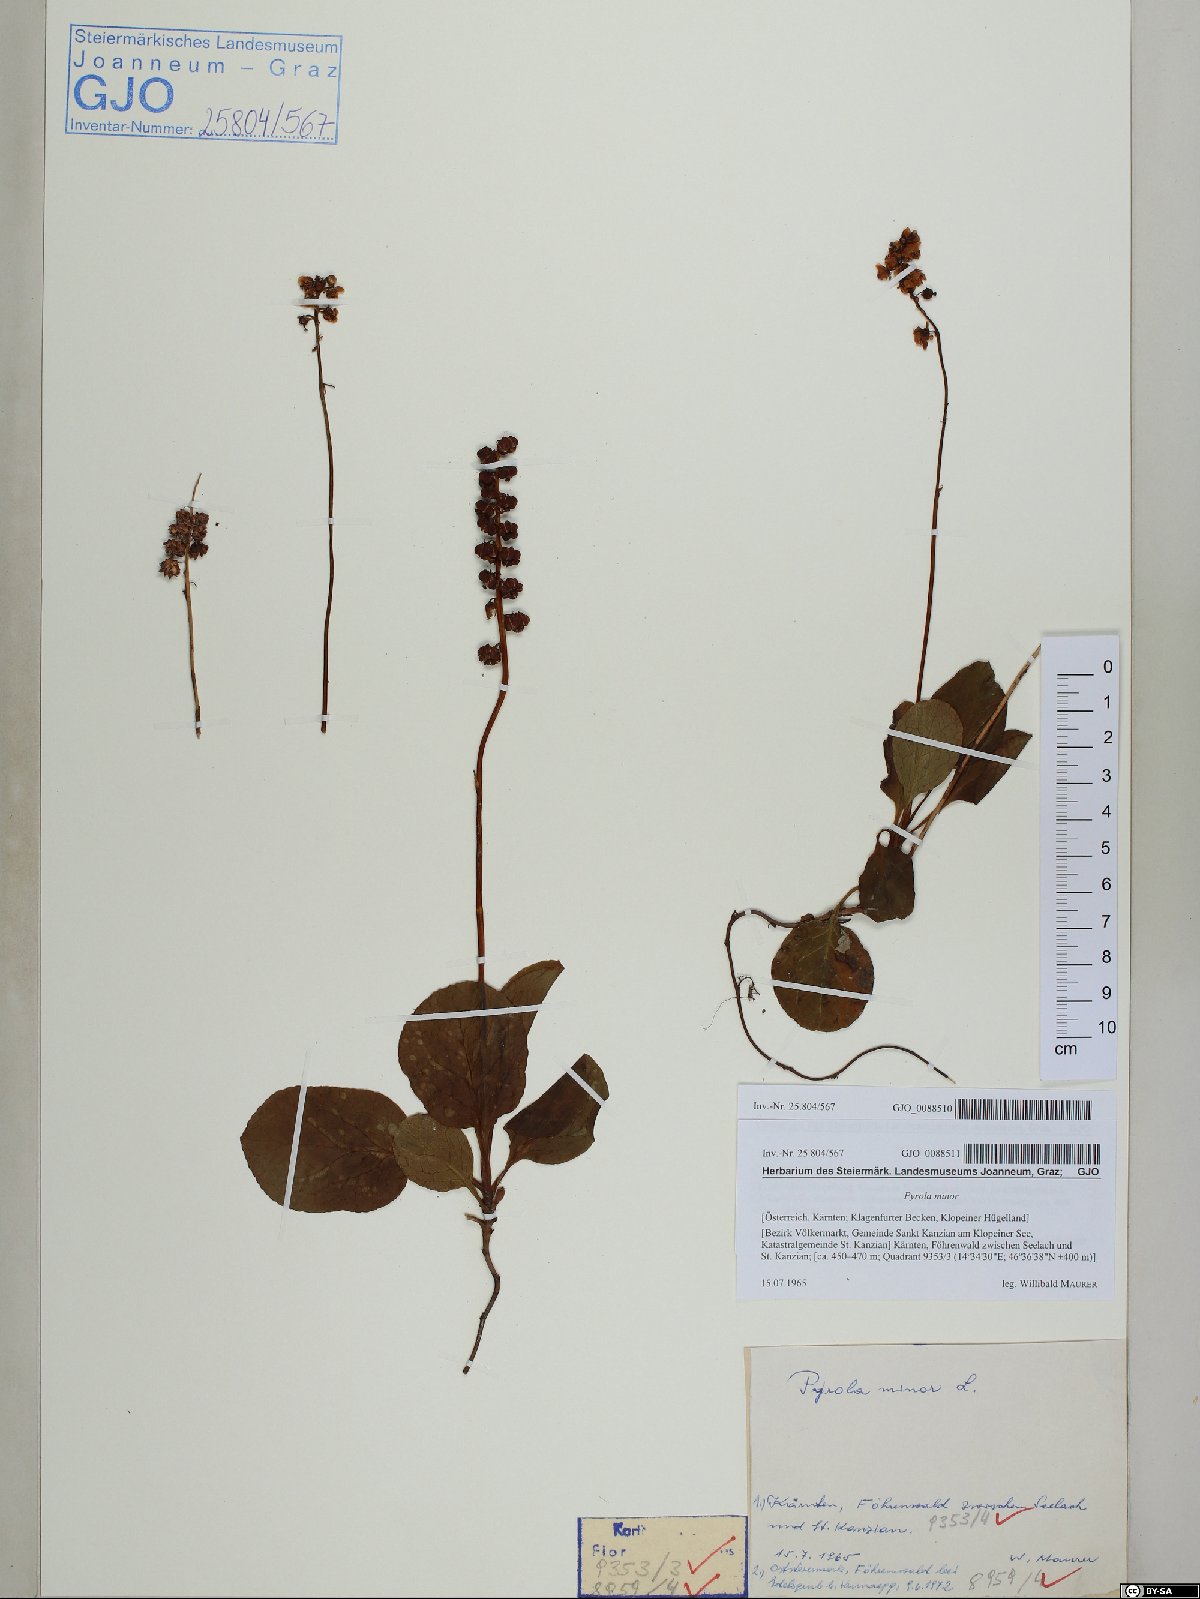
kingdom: Plantae
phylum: Tracheophyta
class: Magnoliopsida
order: Ericales
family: Ericaceae
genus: Pyrola
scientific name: Pyrola minor
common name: Common wintergreen
